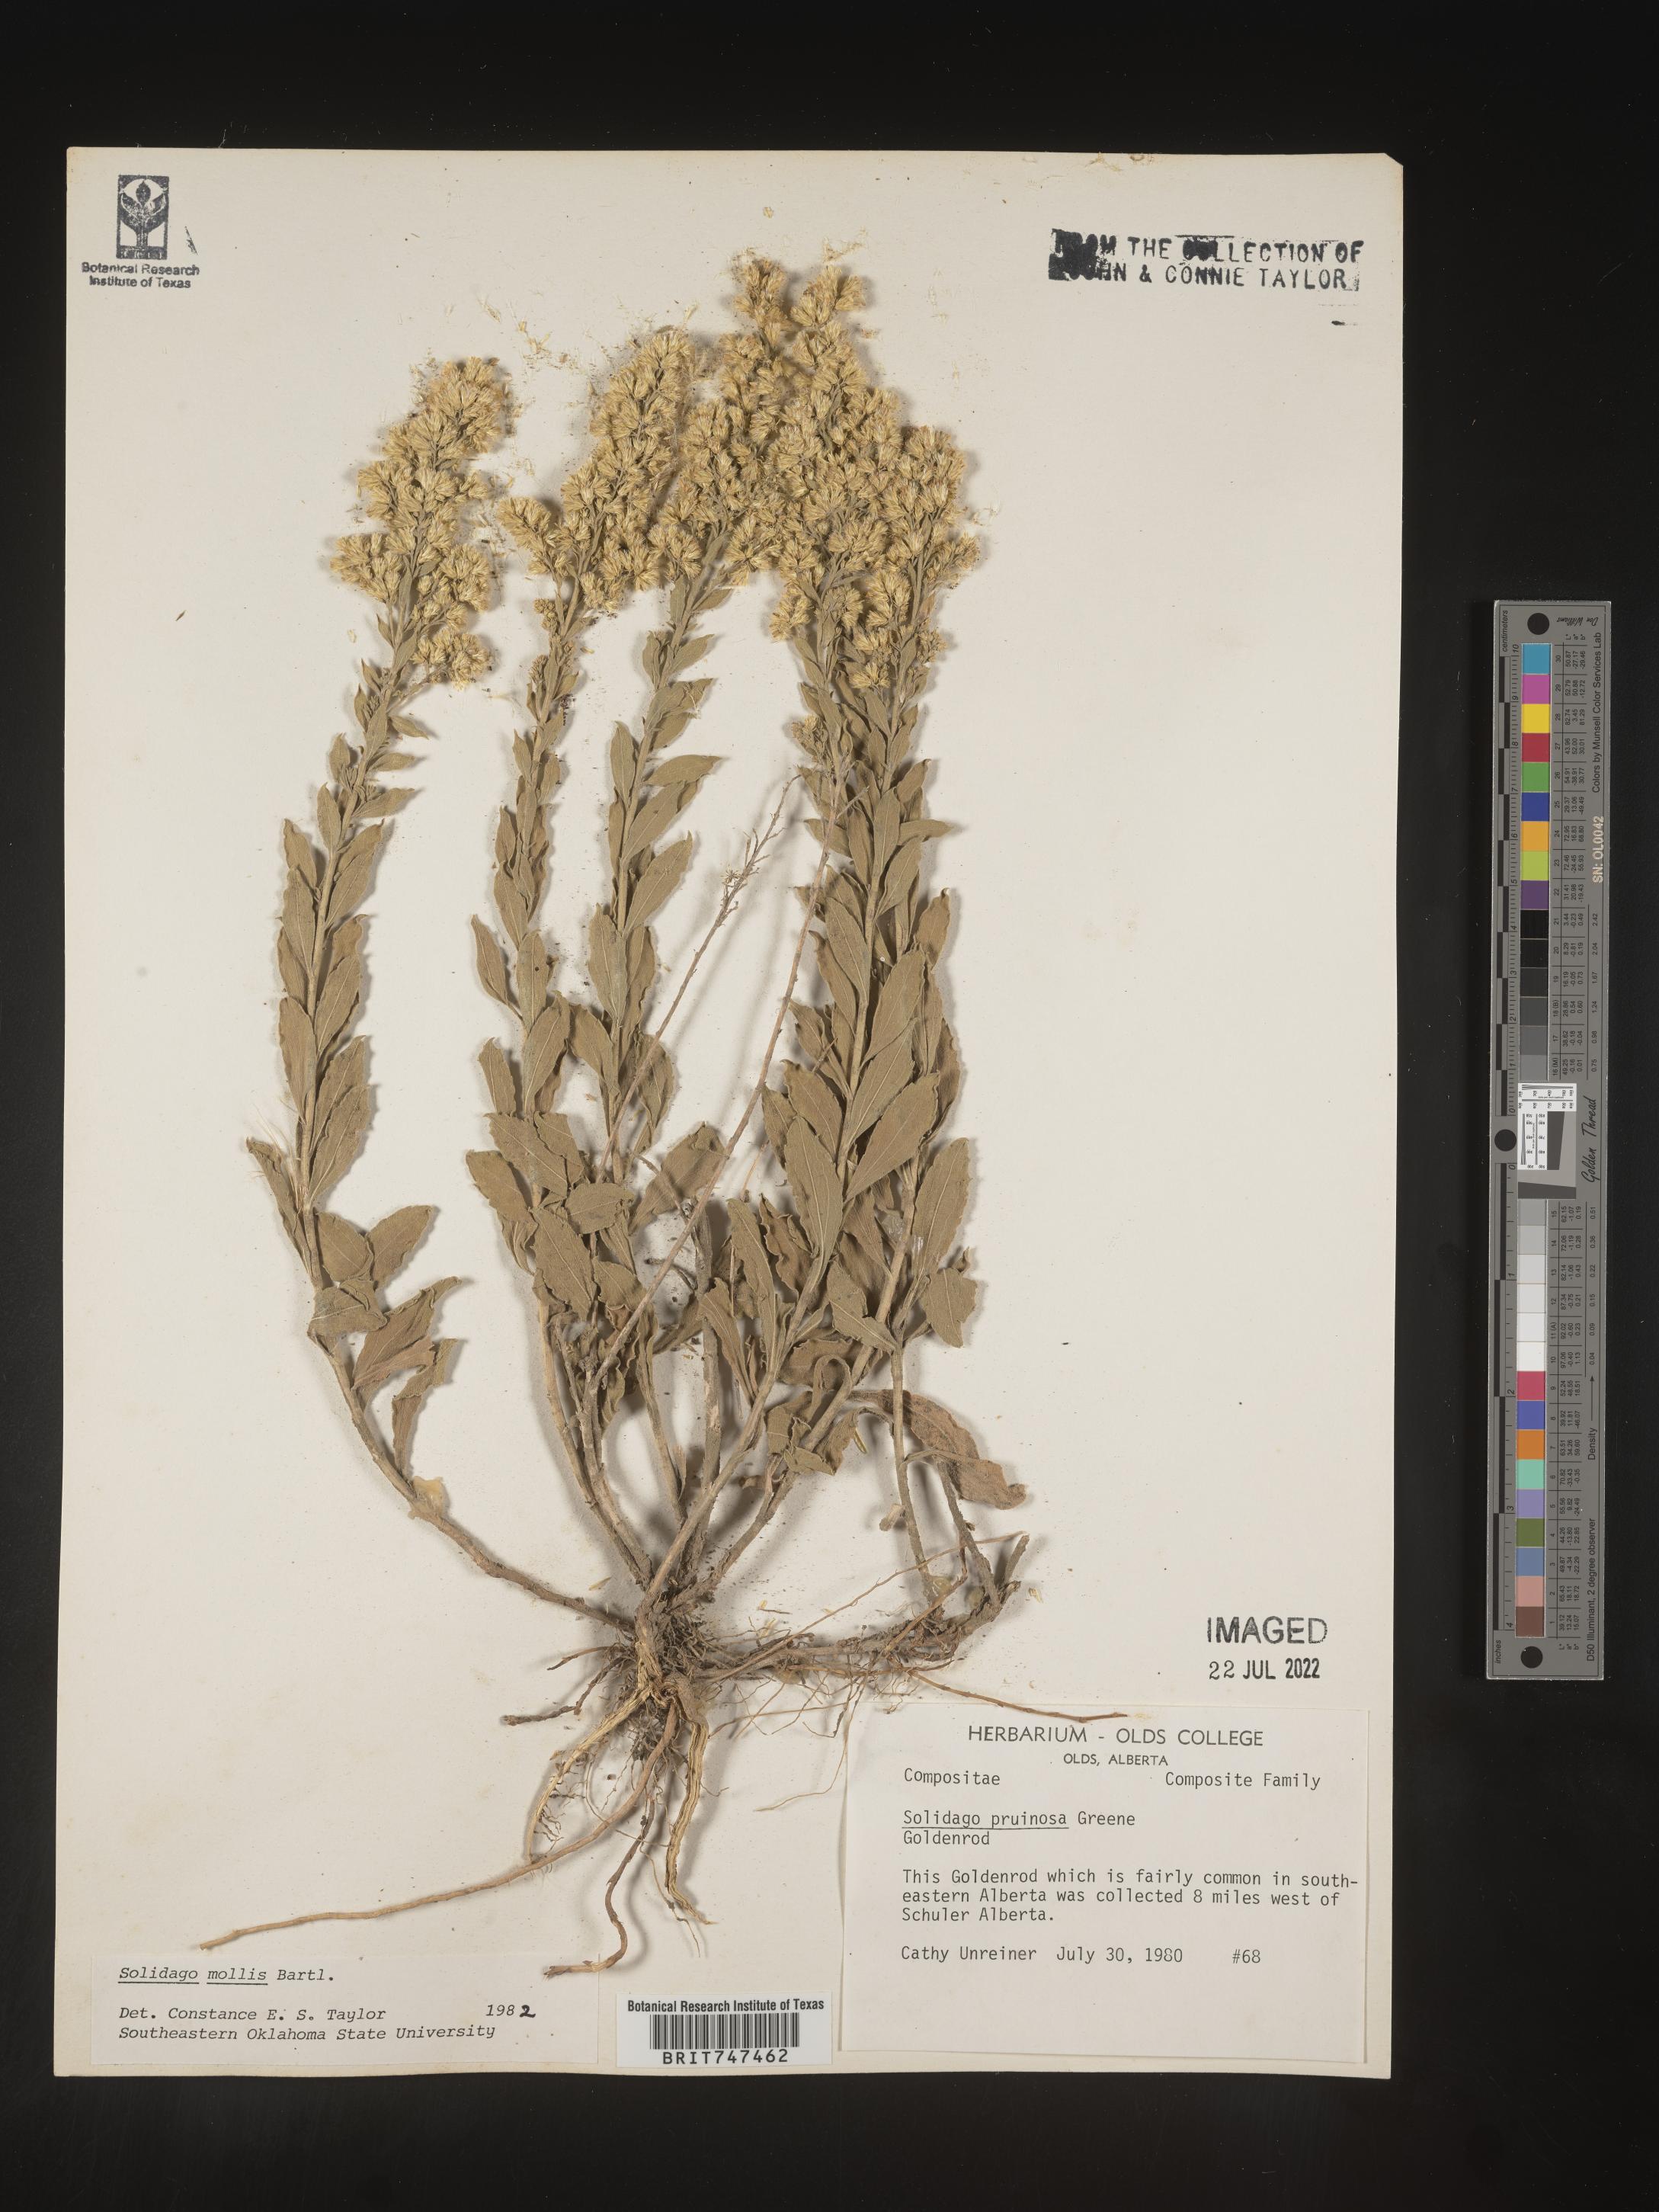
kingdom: Plantae
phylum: Tracheophyta
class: Magnoliopsida
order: Asterales
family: Asteraceae
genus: Solidago
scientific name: Solidago mollis
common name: Ashly goldenrod
